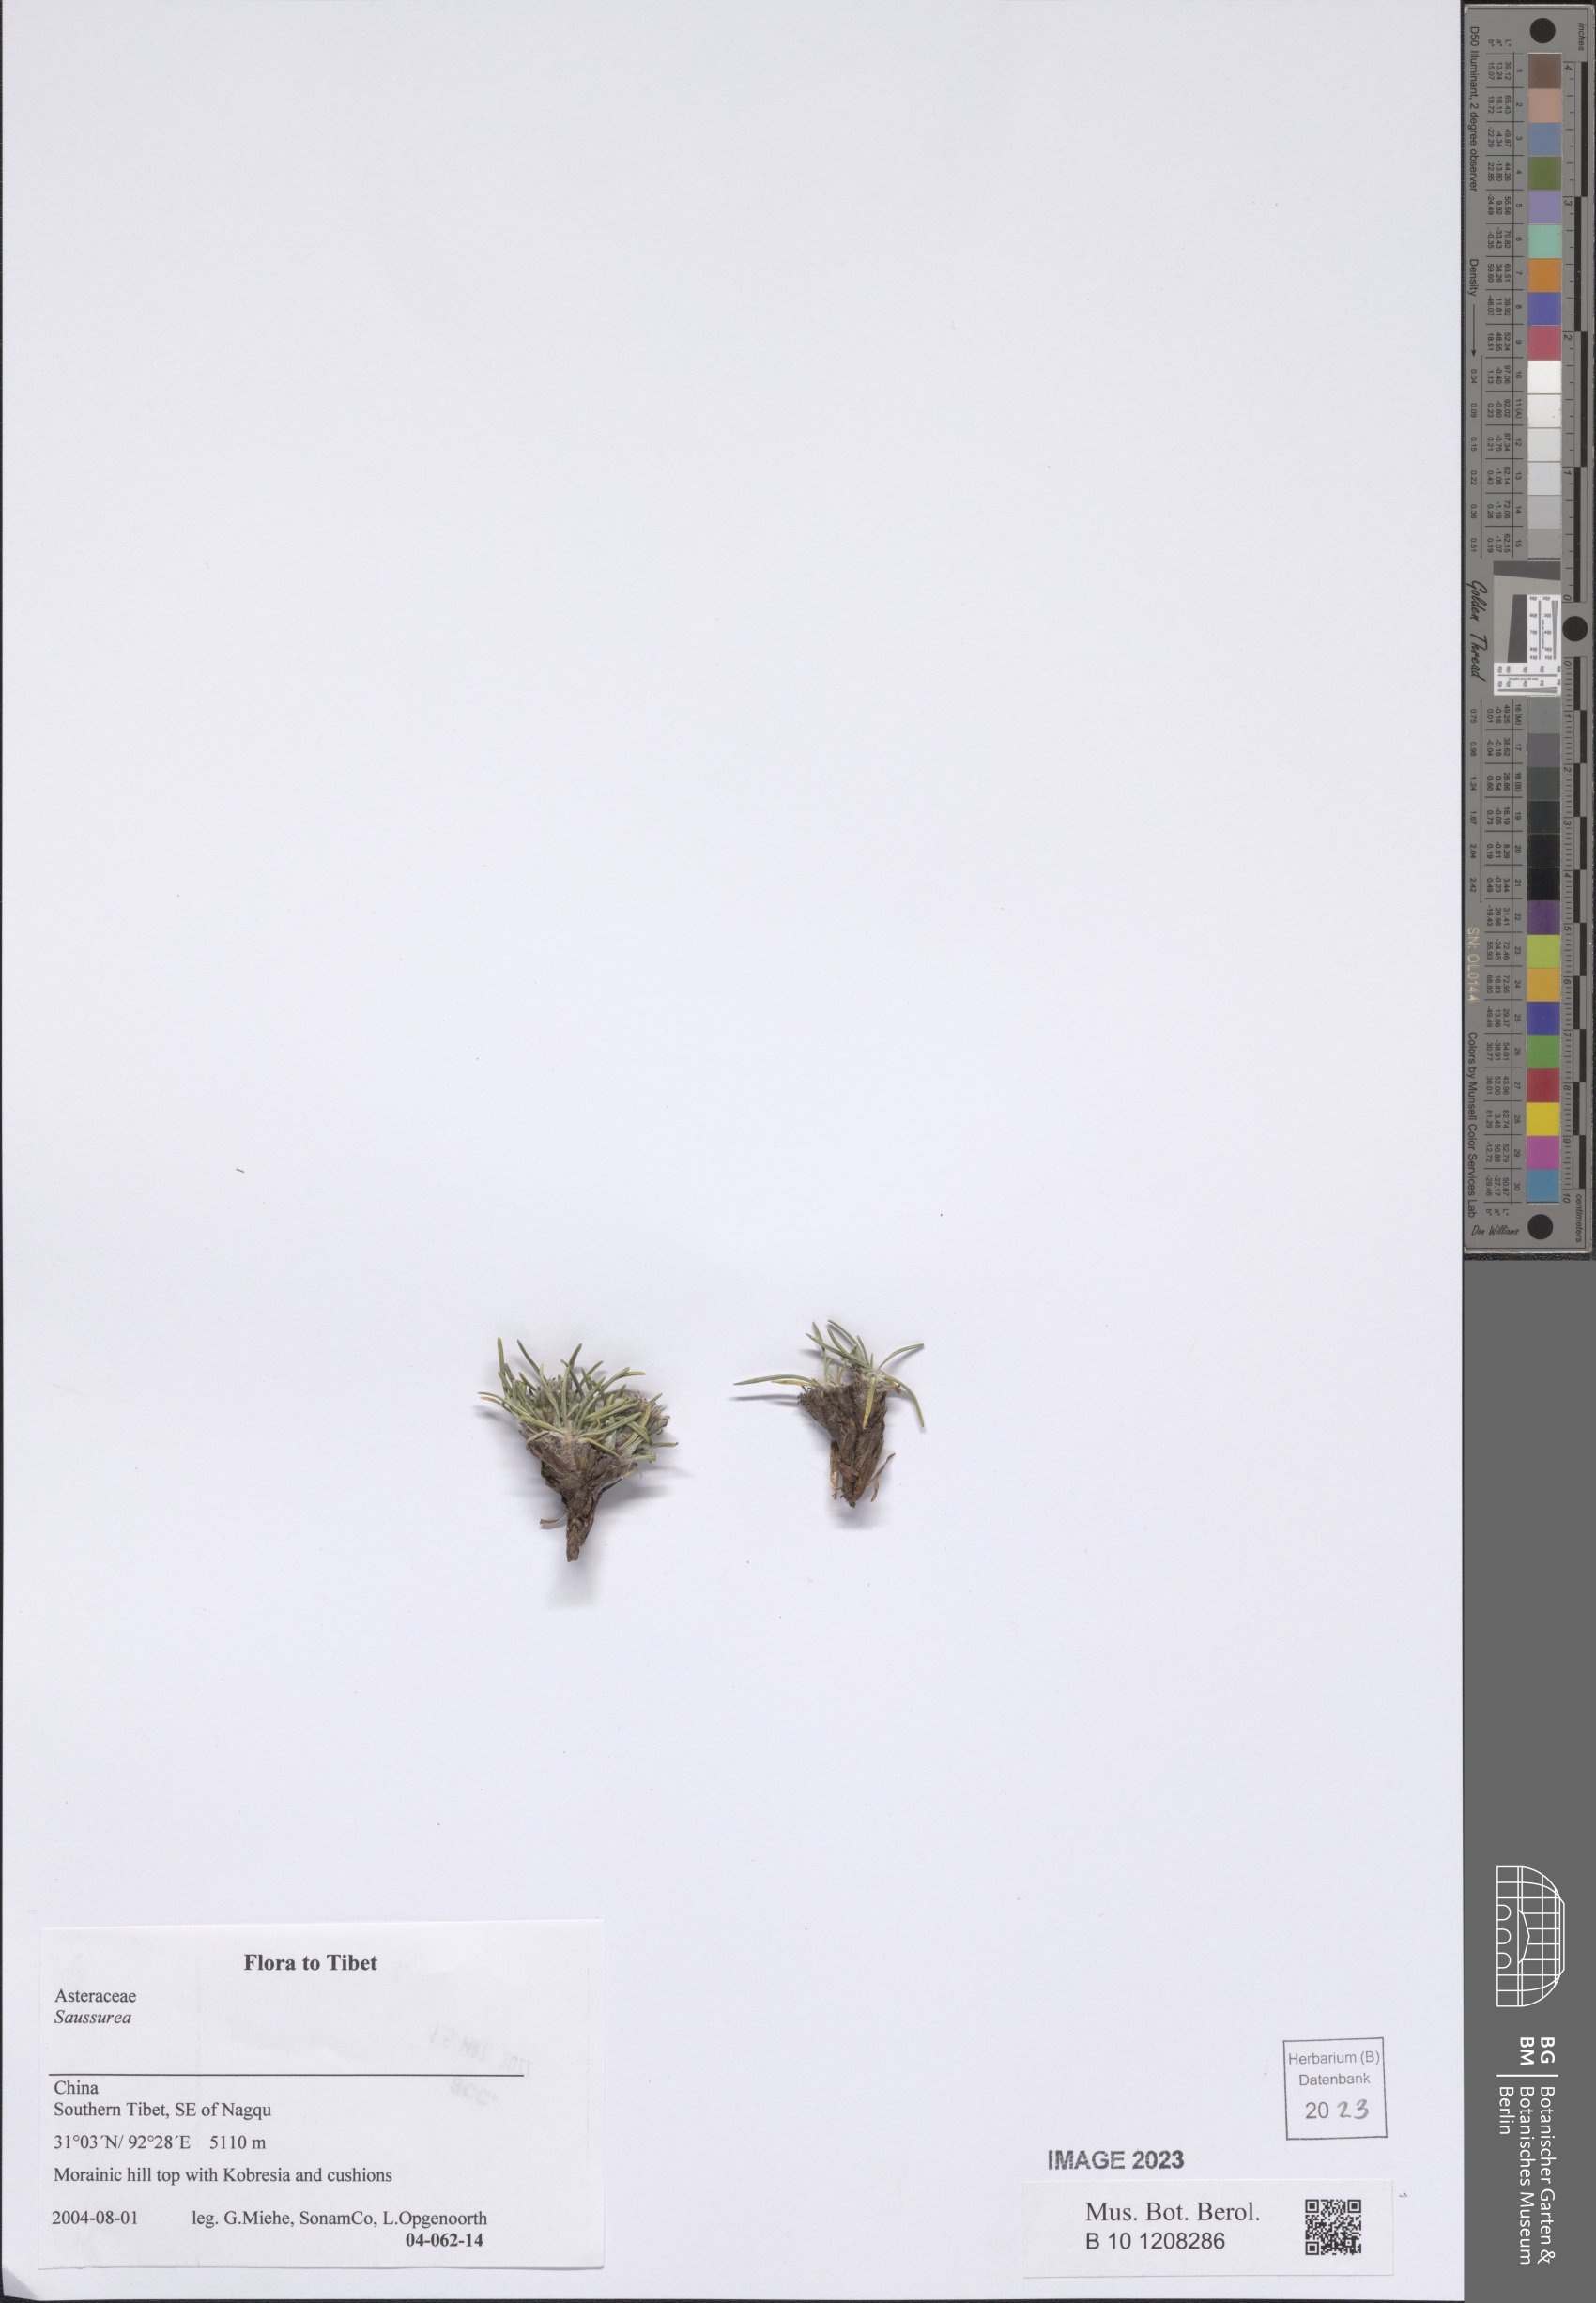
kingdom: Plantae
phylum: Tracheophyta
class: Magnoliopsida
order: Asterales
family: Asteraceae
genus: Saussurea
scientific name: Saussurea
